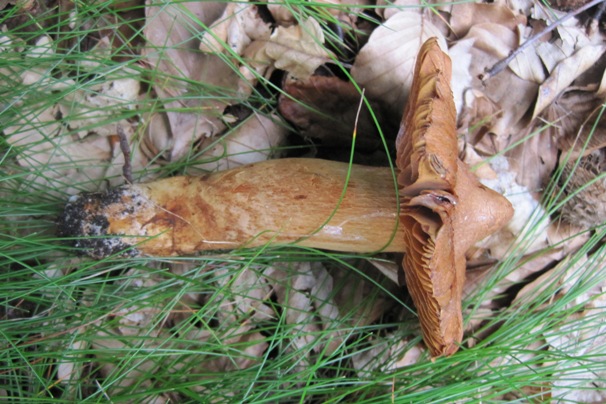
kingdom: Fungi
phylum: Basidiomycota
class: Agaricomycetes
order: Agaricales
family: Cortinariaceae
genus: Cortinarius
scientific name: Cortinarius rubellus
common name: puklet gift-slørhat
